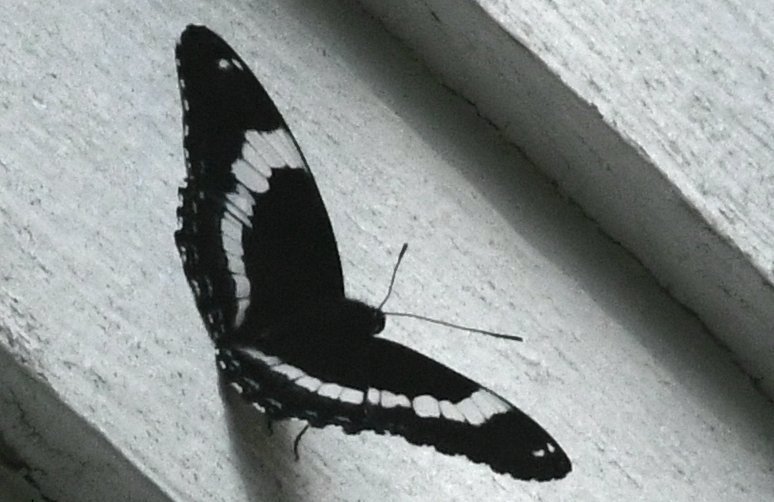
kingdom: Animalia
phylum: Arthropoda
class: Insecta
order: Lepidoptera
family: Nymphalidae
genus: Limenitis
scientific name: Limenitis arthemis
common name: Red-spotted Admiral
